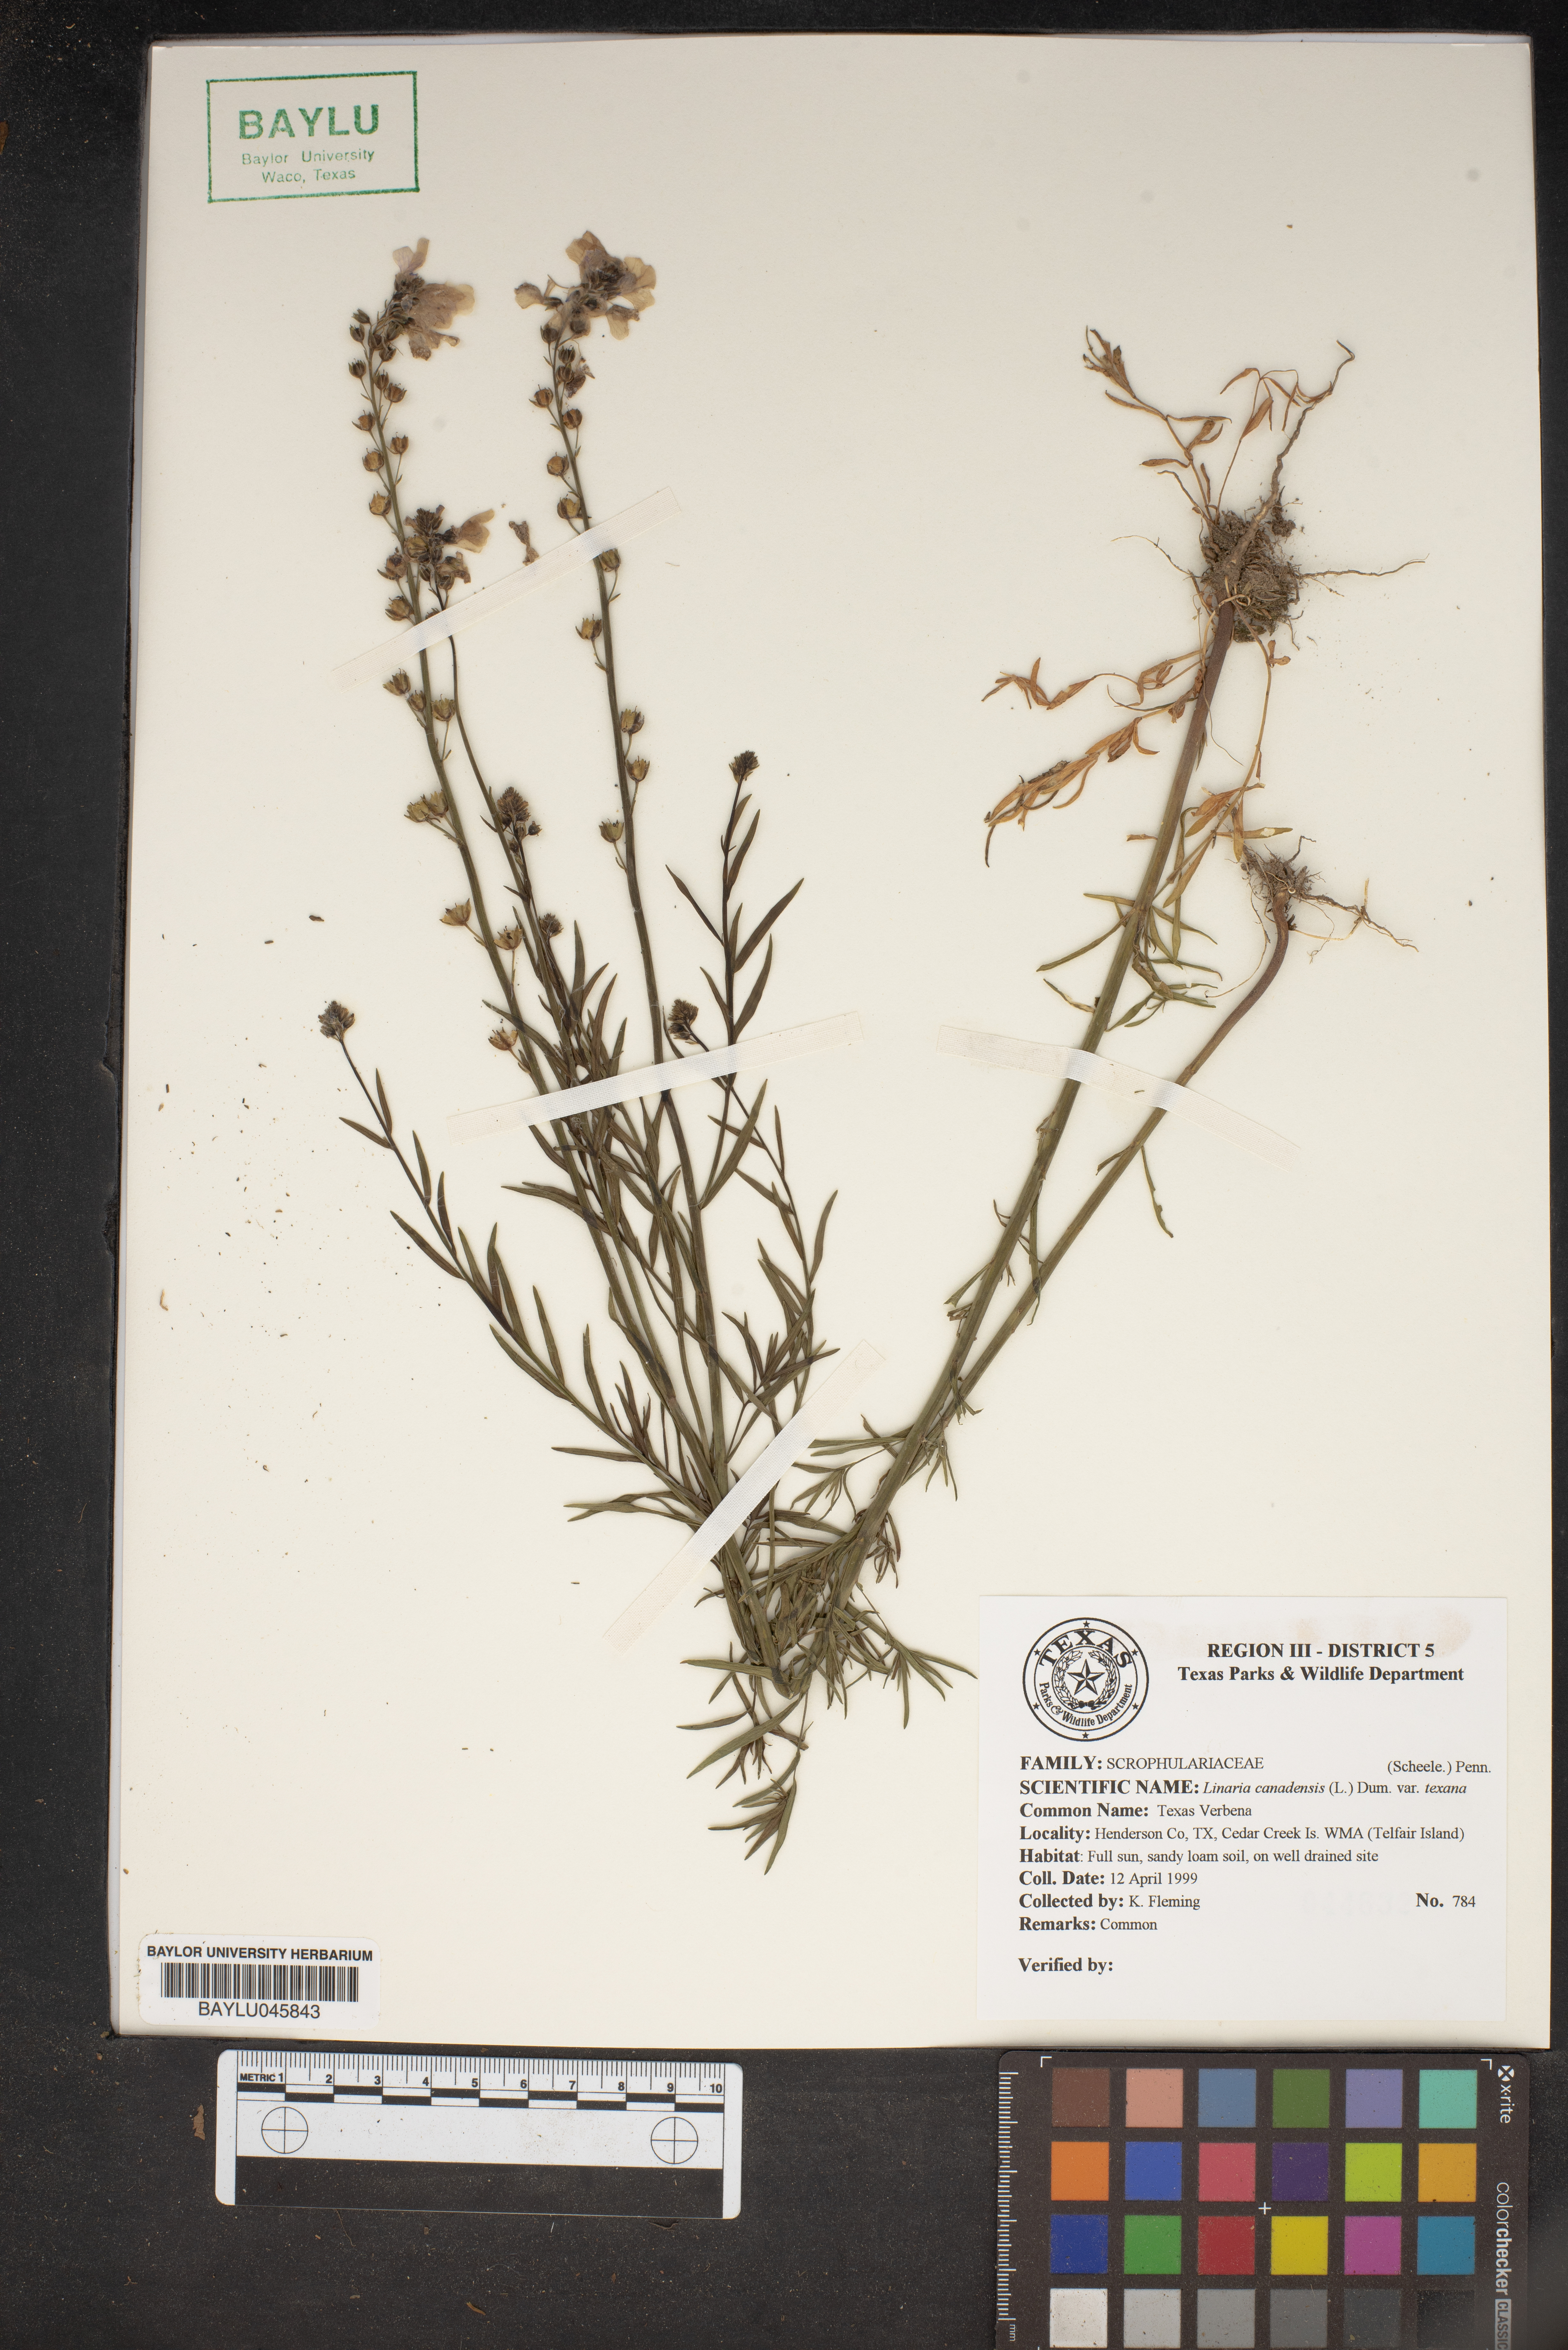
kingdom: Plantae
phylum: Tracheophyta
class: Magnoliopsida
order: Lamiales
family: Plantaginaceae
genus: Nuttallanthus
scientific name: Nuttallanthus canadensis
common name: Blue toadflax
